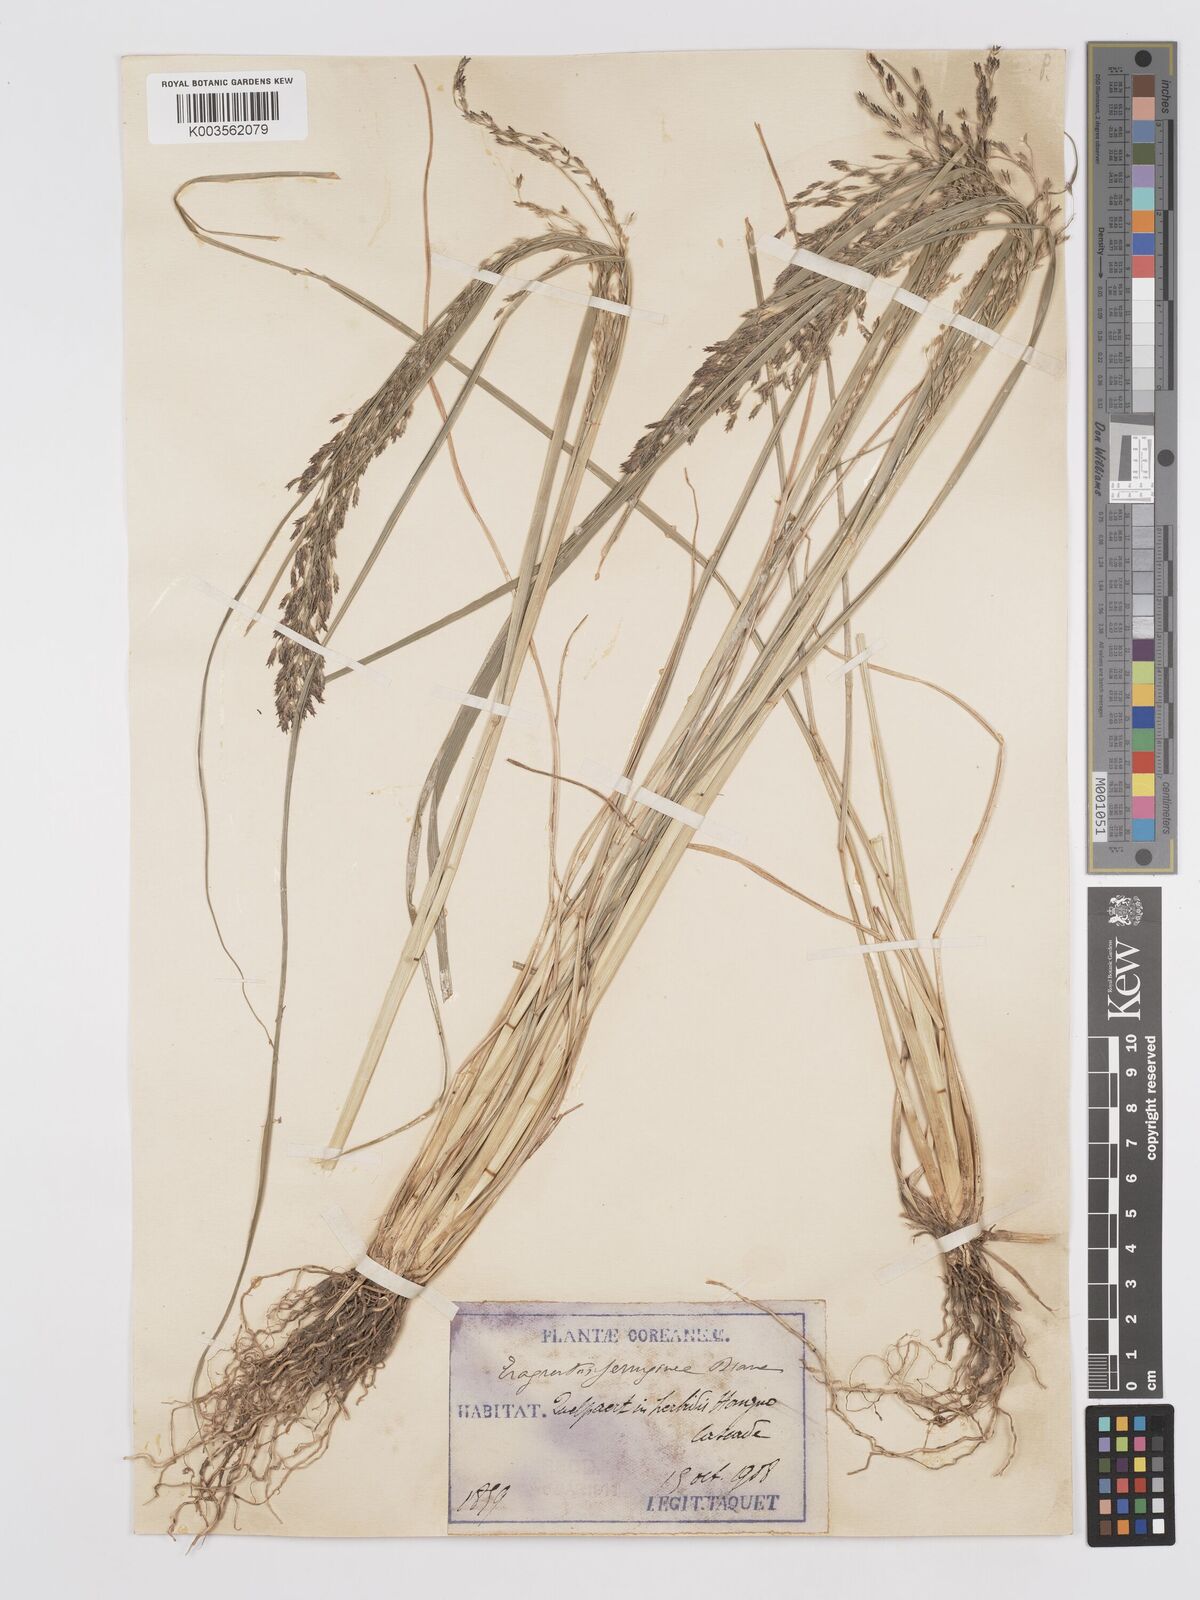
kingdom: Plantae
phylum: Tracheophyta
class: Liliopsida
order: Poales
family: Poaceae
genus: Eragrostis
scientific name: Eragrostis ferruginea
